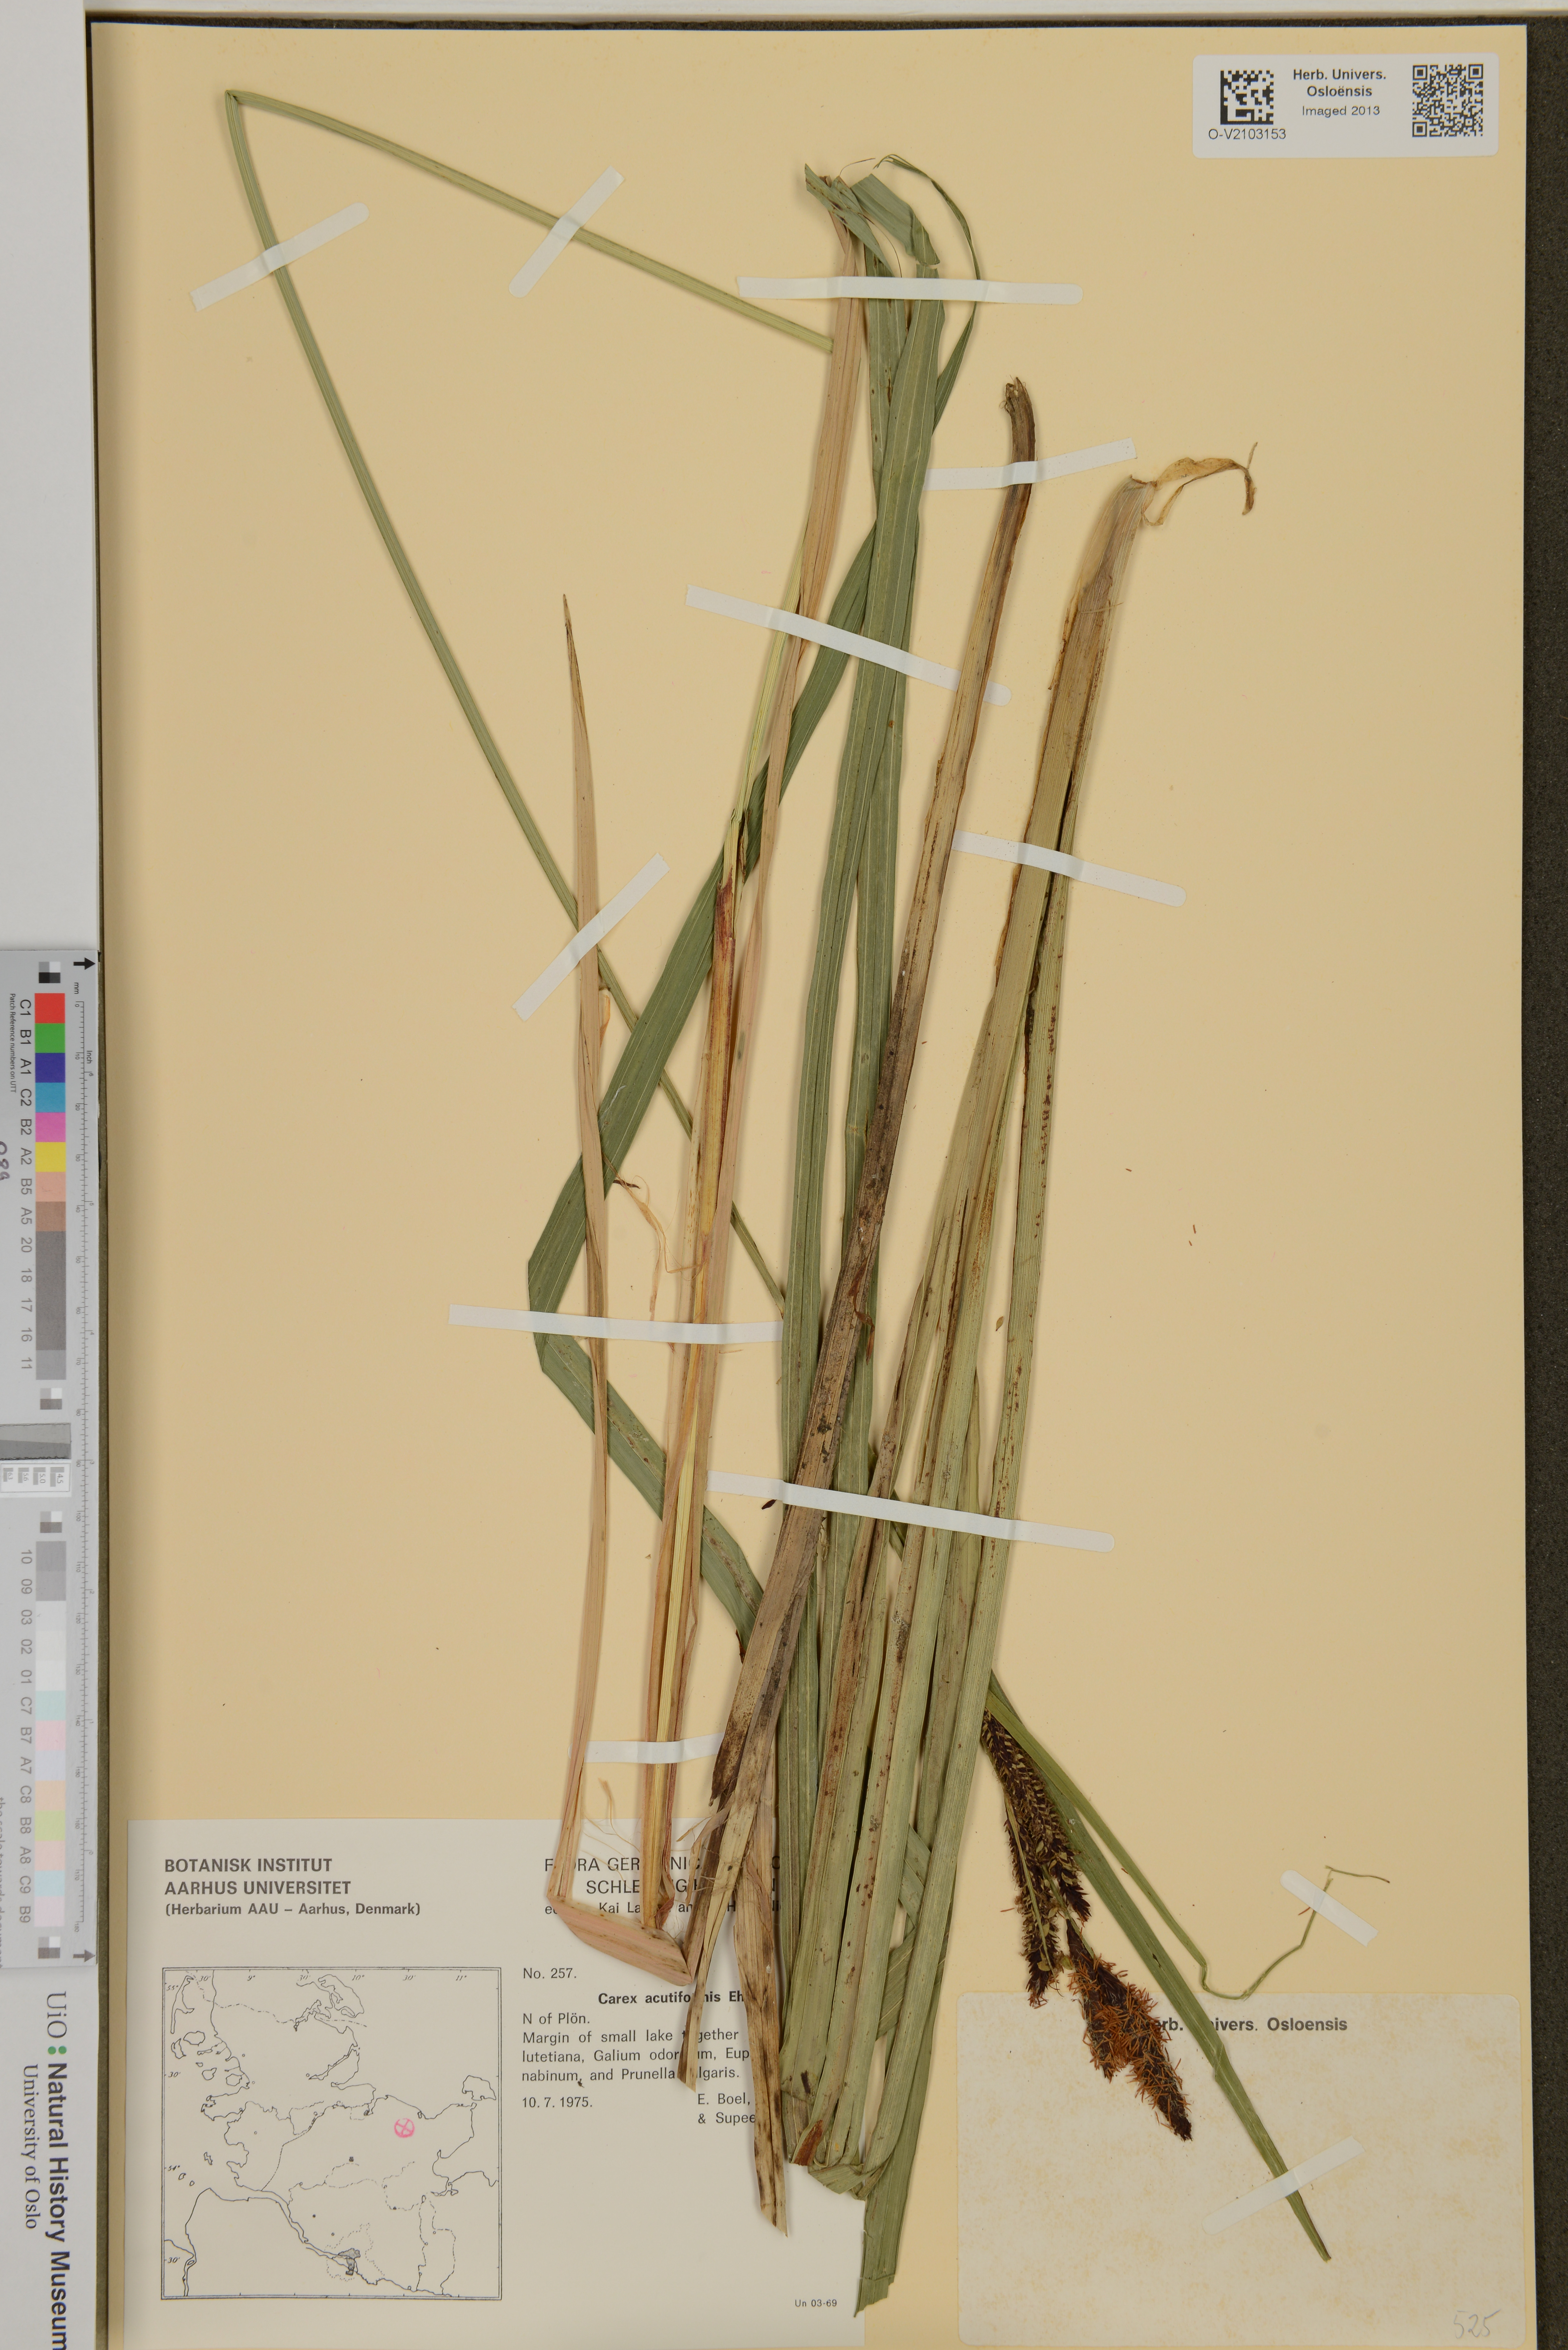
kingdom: Plantae
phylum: Tracheophyta
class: Liliopsida
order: Poales
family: Cyperaceae
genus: Carex
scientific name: Carex acutiformis
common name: Lesser pond-sedge
